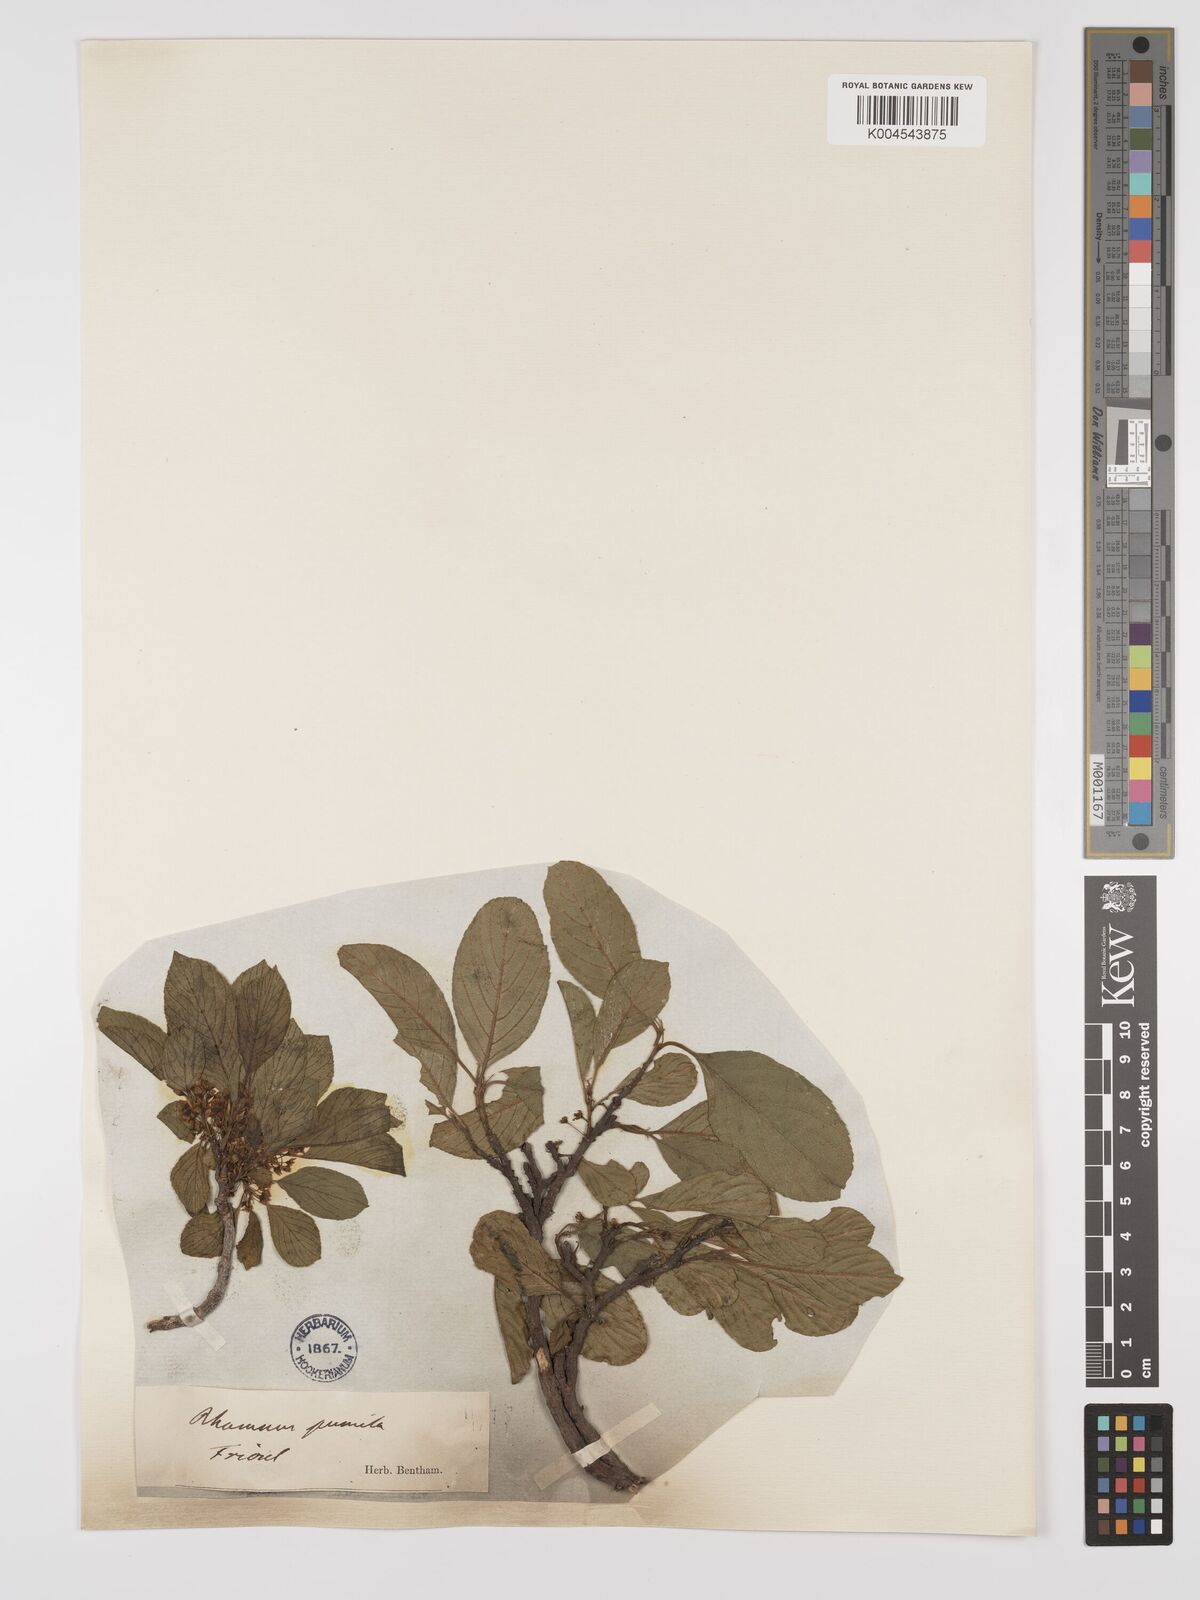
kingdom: Plantae
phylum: Tracheophyta
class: Magnoliopsida
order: Rosales
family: Rhamnaceae
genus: Rhamnus
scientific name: Rhamnus
